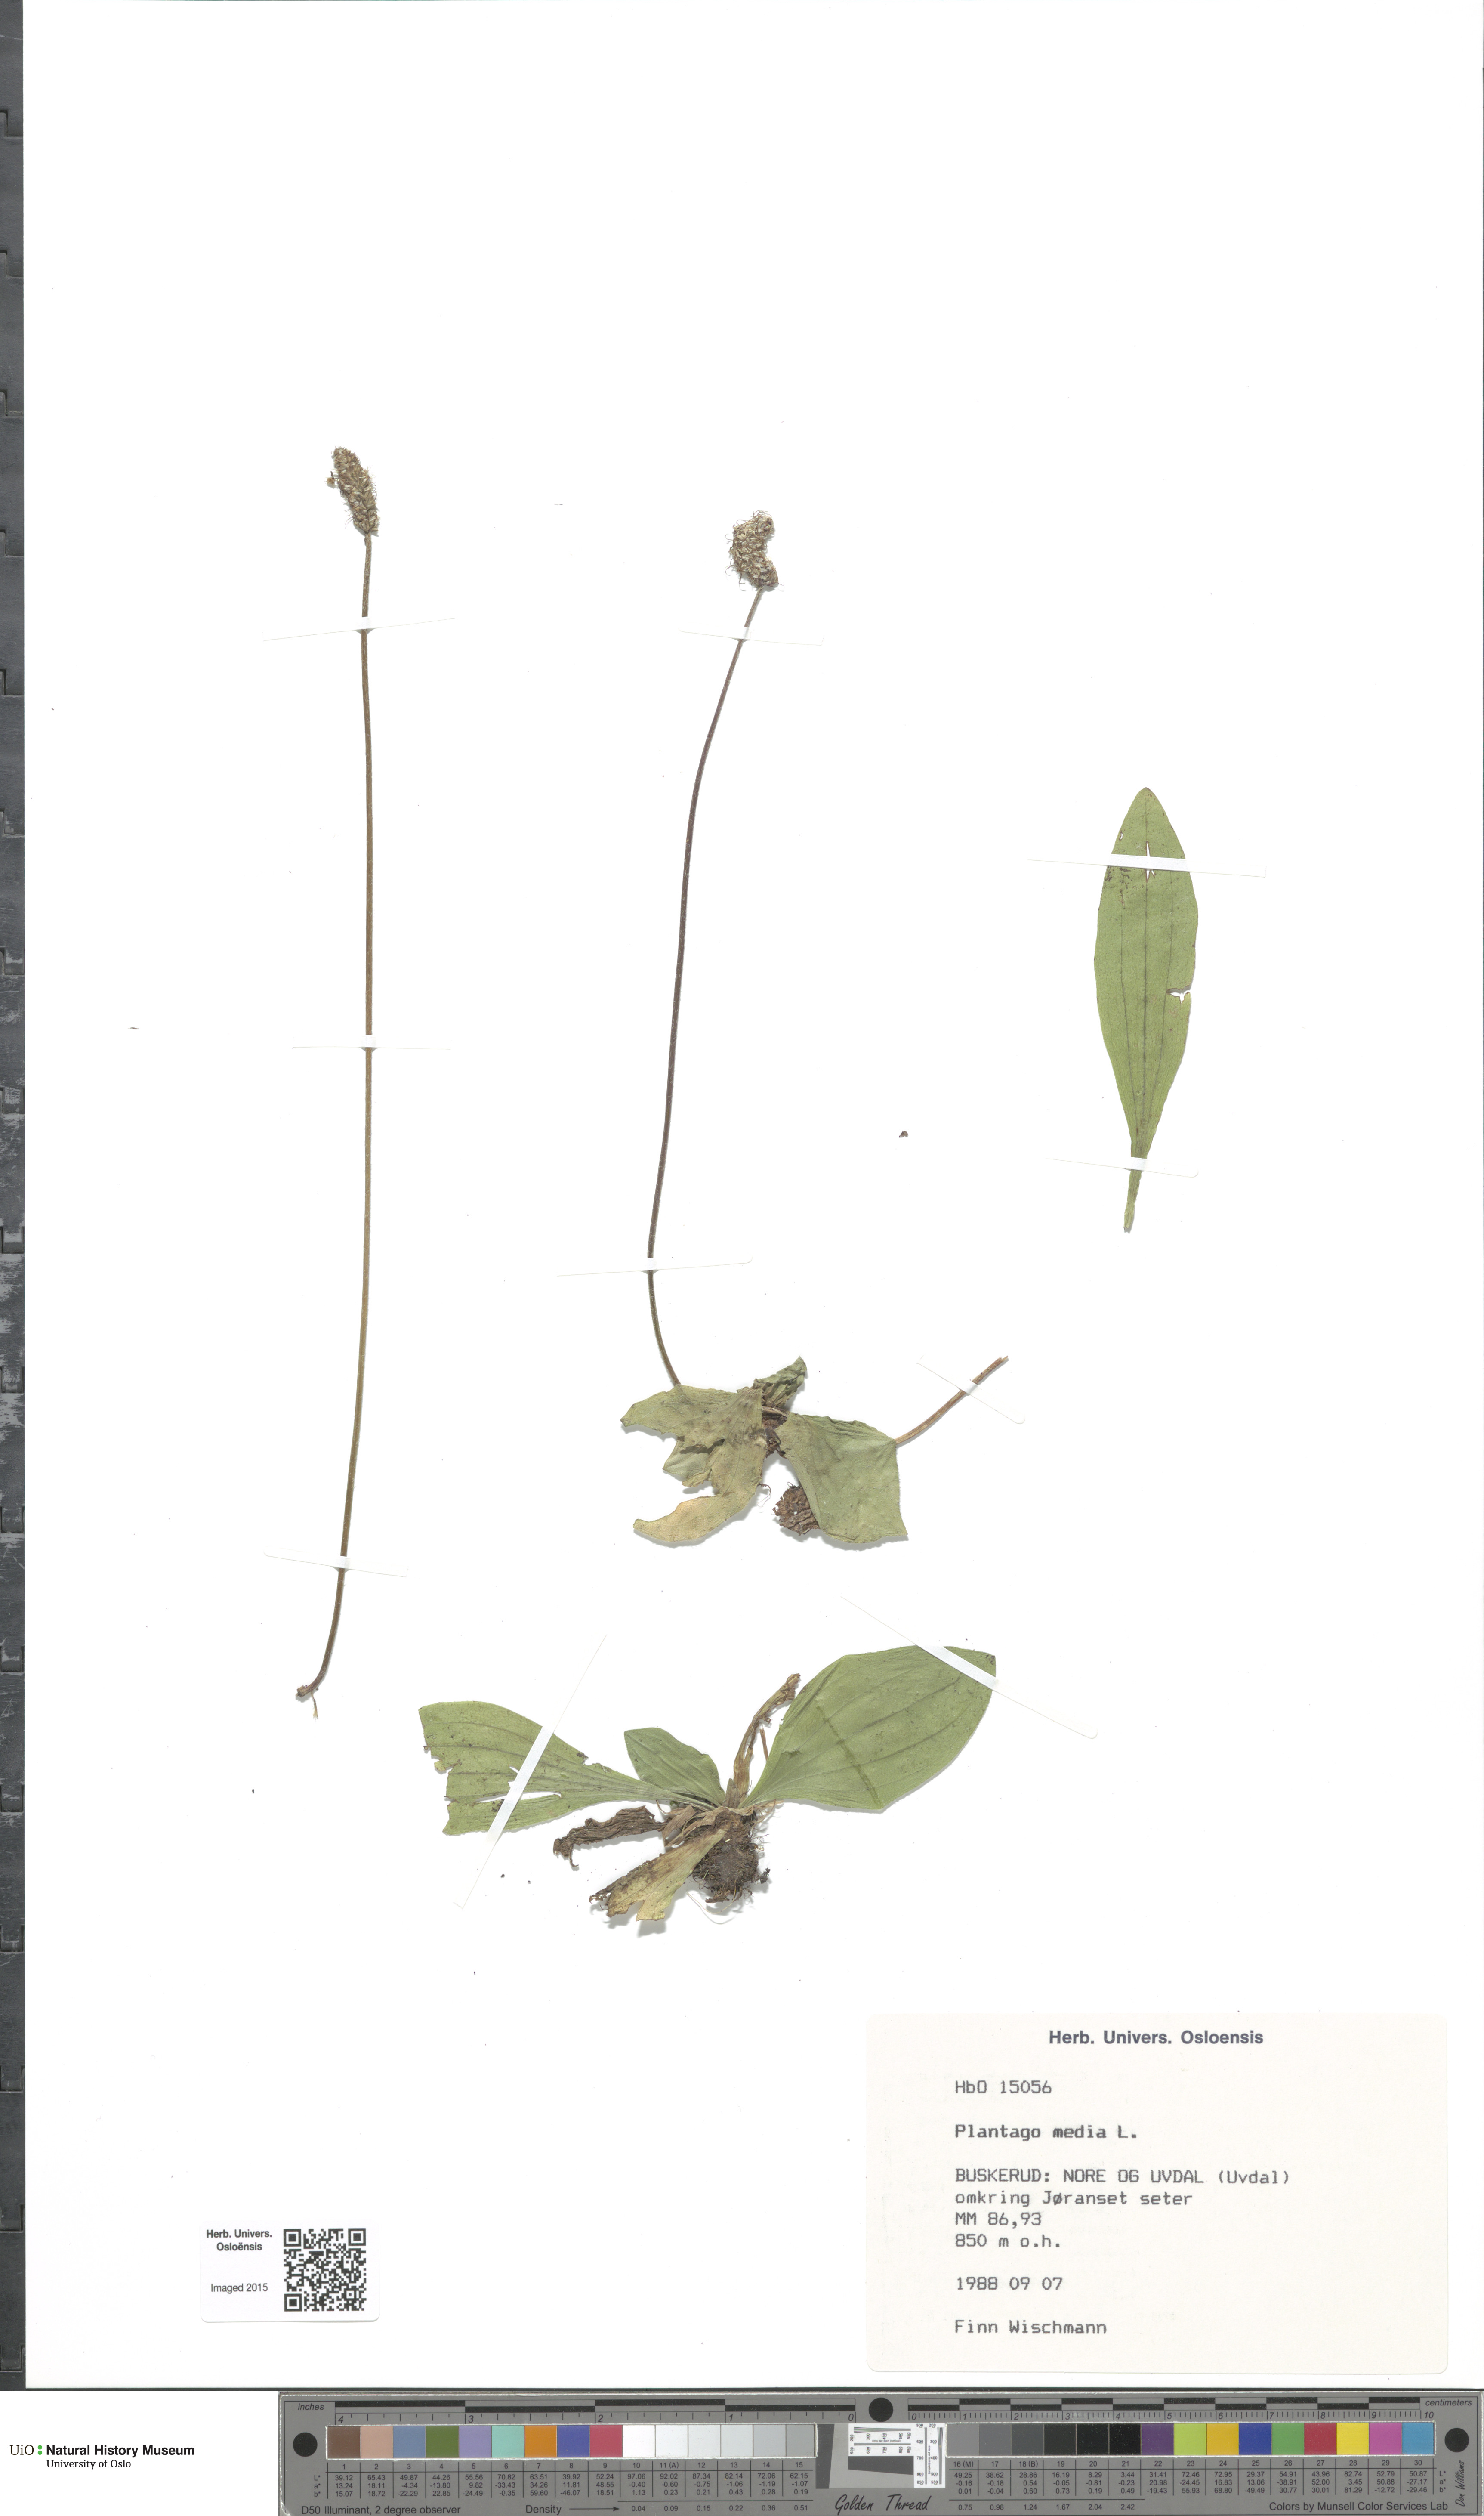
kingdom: Plantae
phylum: Tracheophyta
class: Magnoliopsida
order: Lamiales
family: Plantaginaceae
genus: Plantago
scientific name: Plantago media
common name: Hoary plantain
